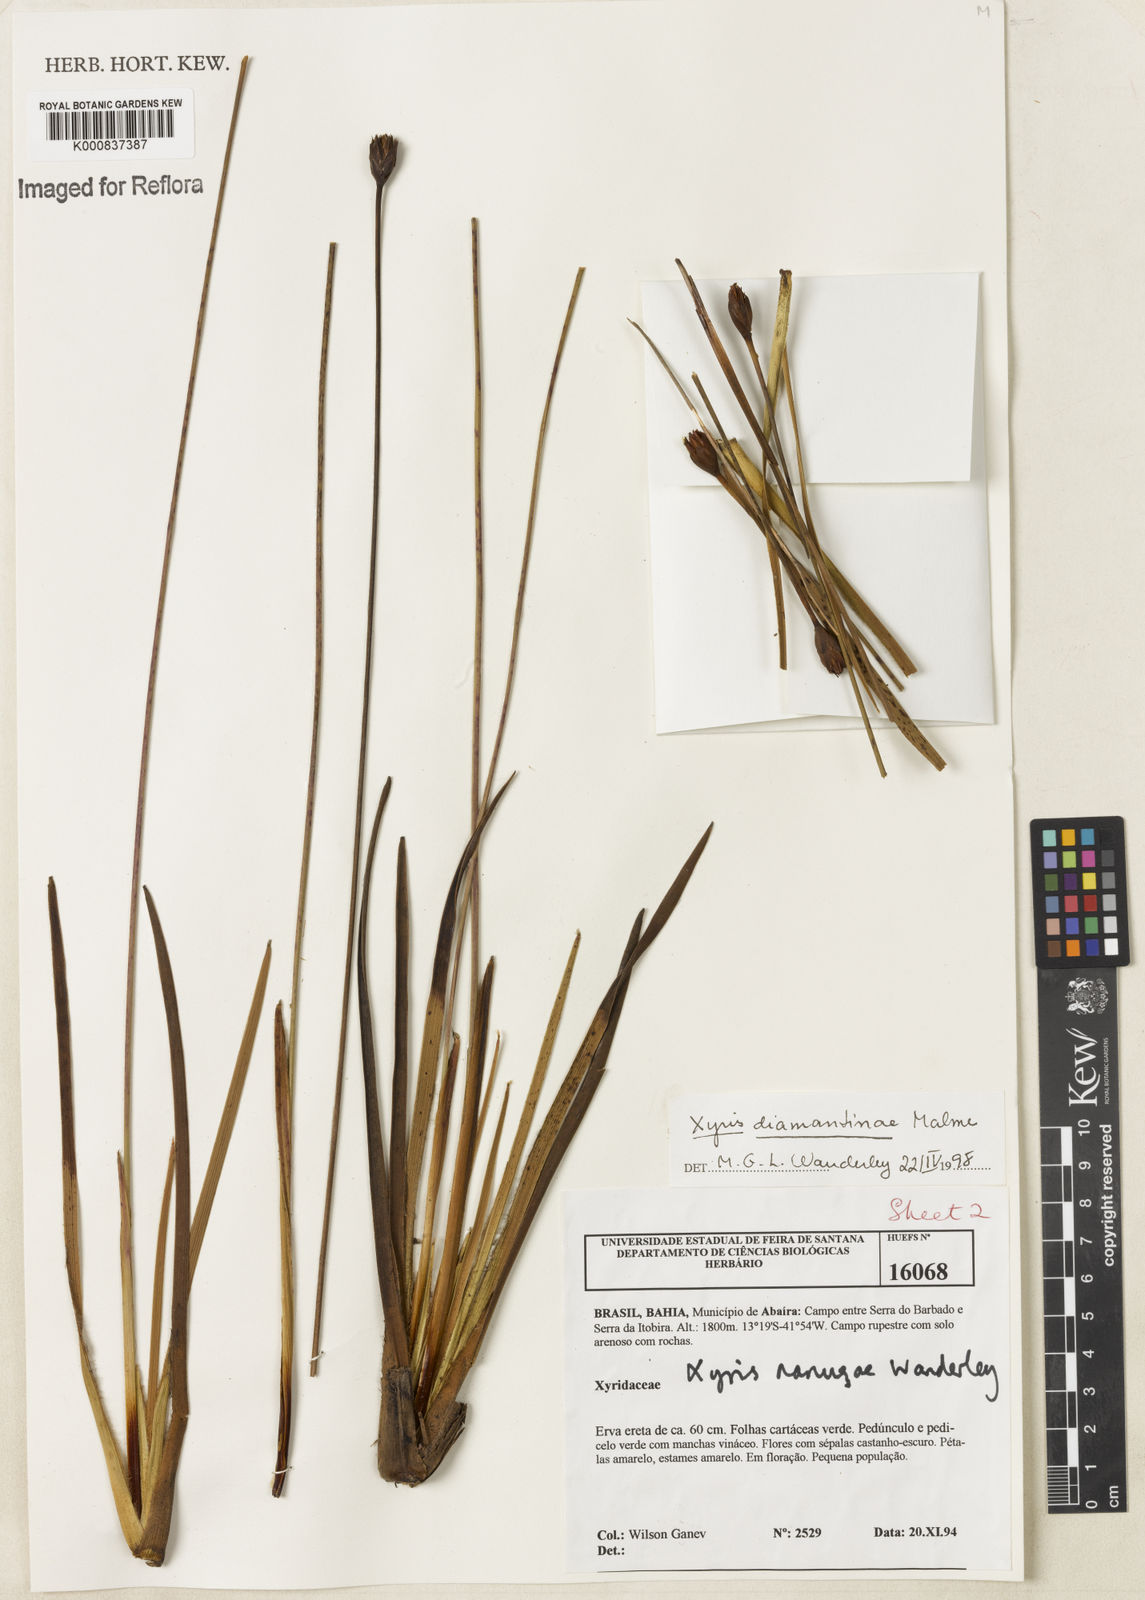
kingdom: Plantae
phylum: Tracheophyta
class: Liliopsida
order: Poales
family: Xyridaceae
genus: Xyris
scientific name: Xyris diamantinae
